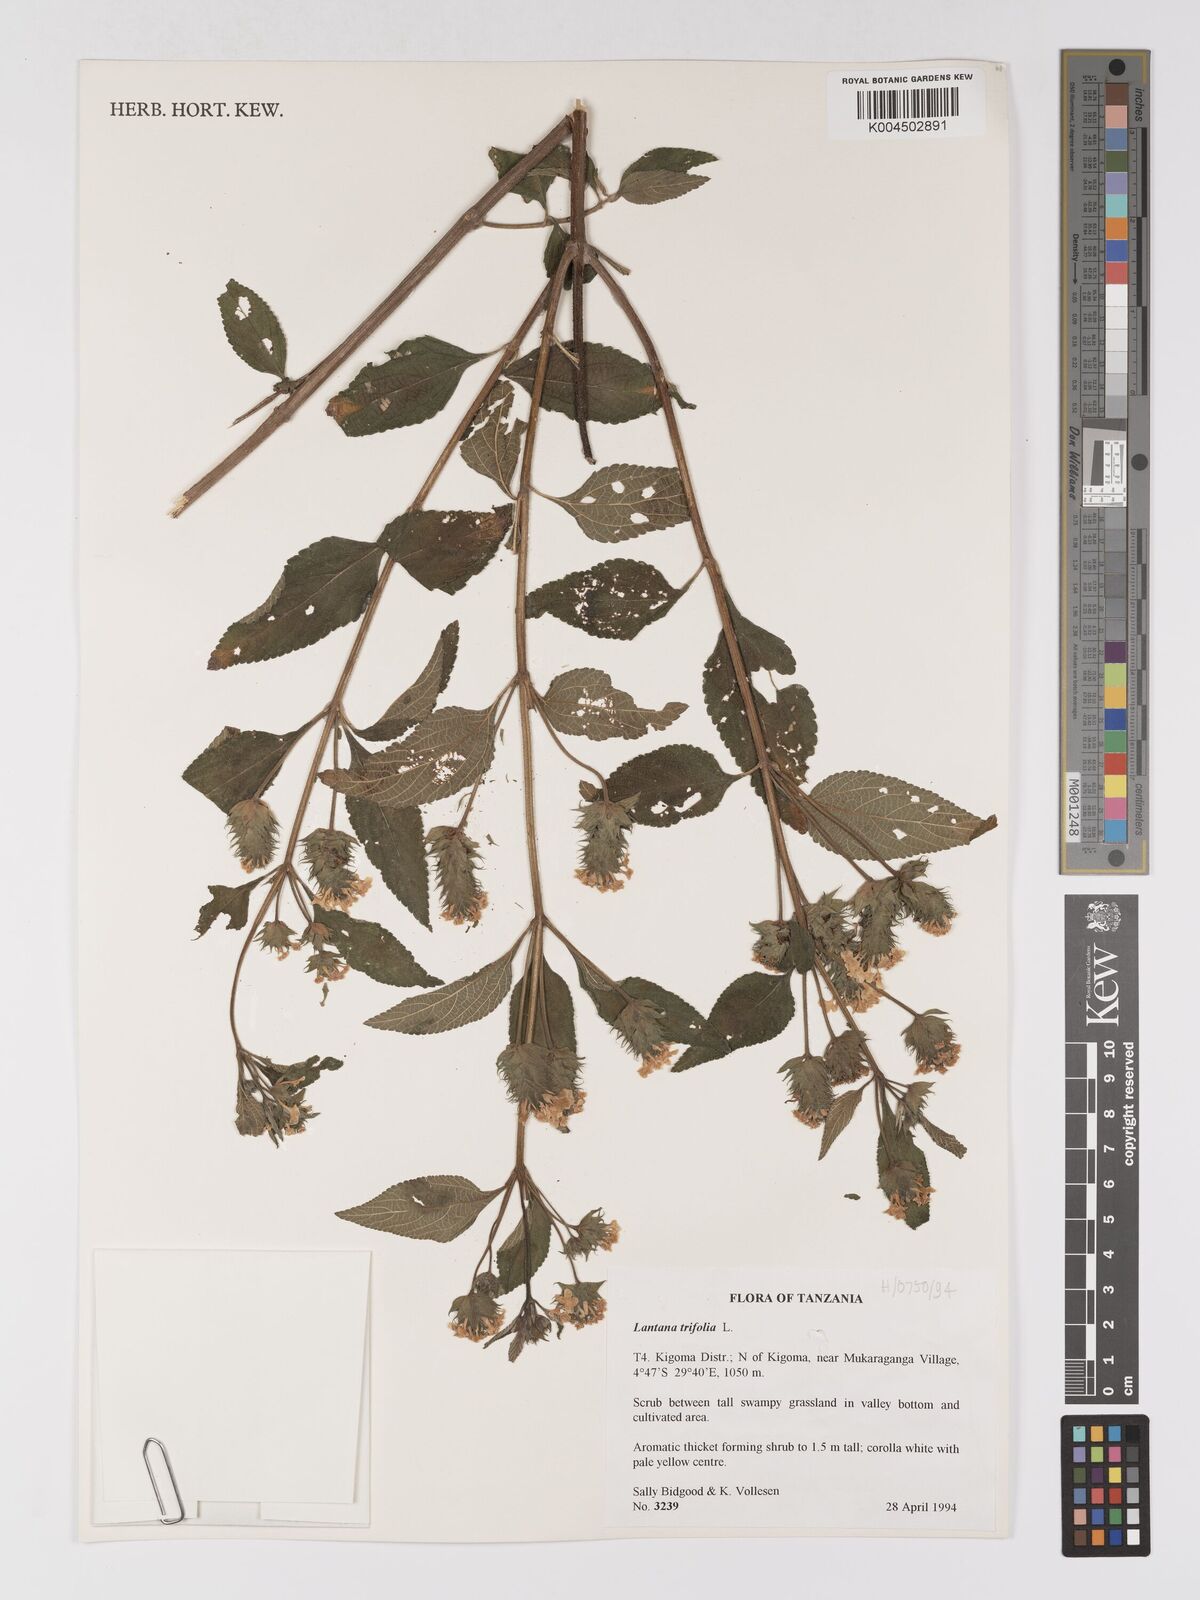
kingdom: Plantae
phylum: Tracheophyta
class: Magnoliopsida
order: Lamiales
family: Verbenaceae
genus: Lantana
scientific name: Lantana trifolia
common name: Sweet-sage
